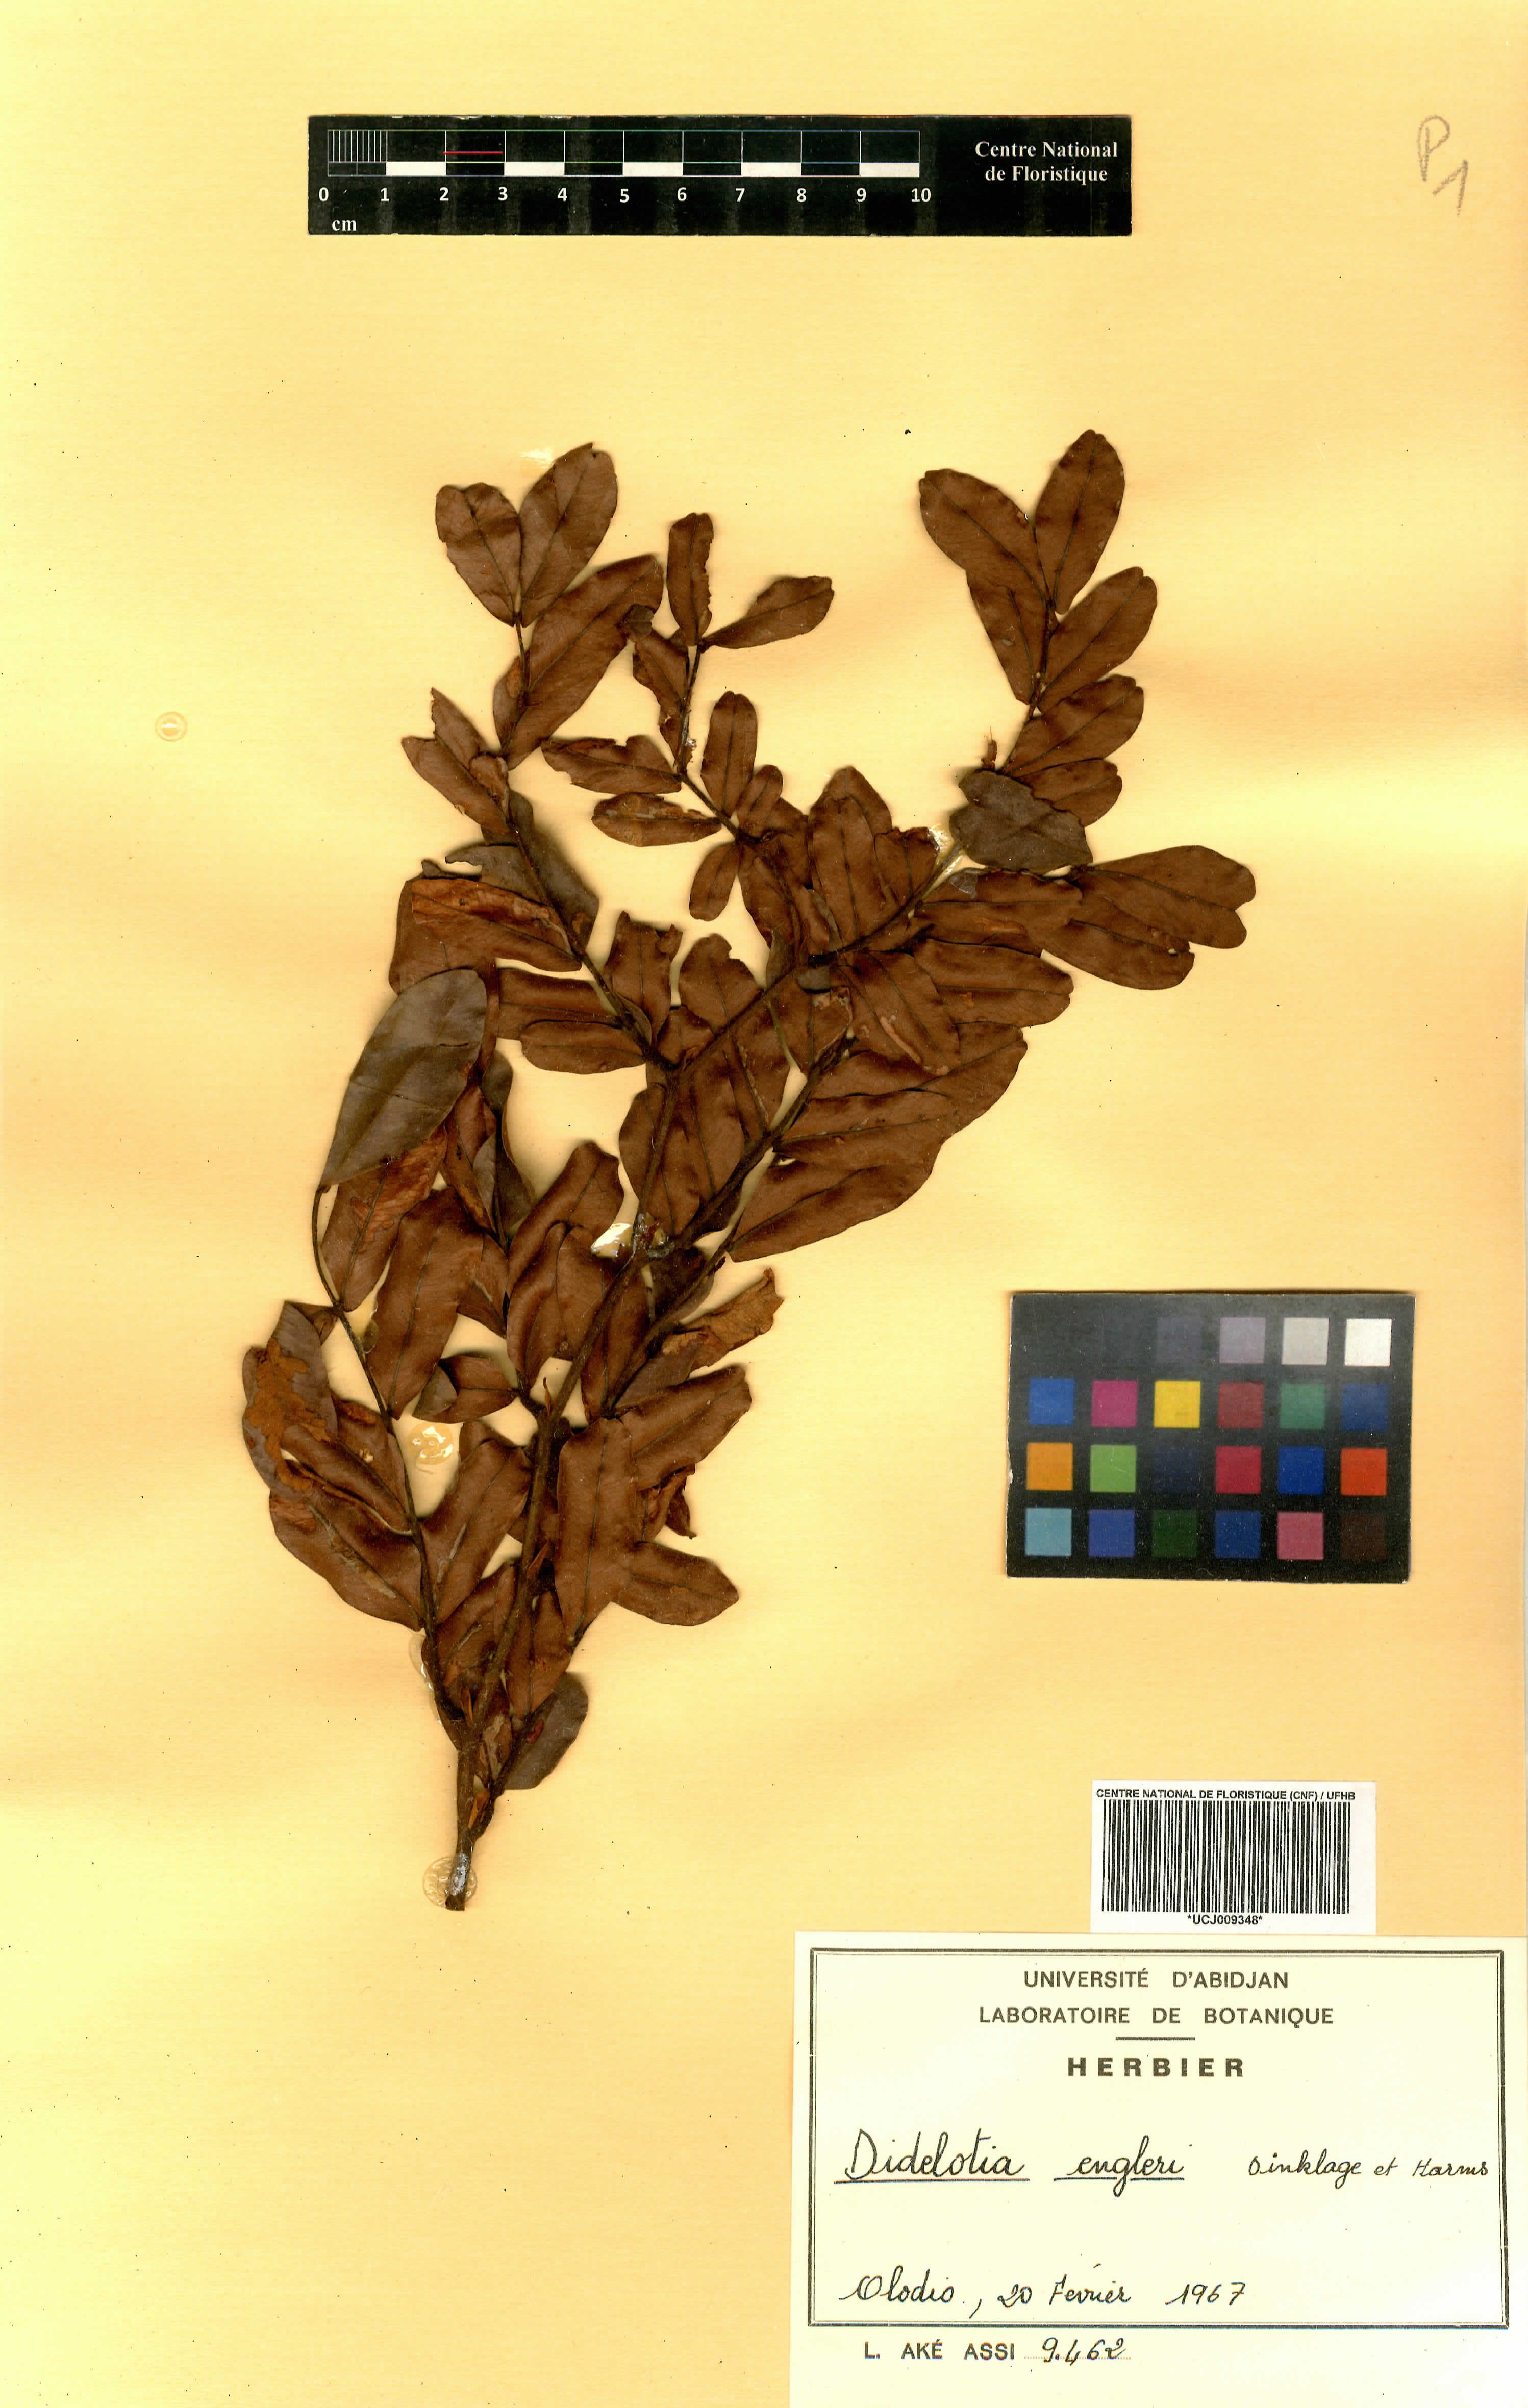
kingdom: Plantae
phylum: Tracheophyta
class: Magnoliopsida
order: Fabales
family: Fabaceae
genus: Didelotia
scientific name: Didelotia engleri
